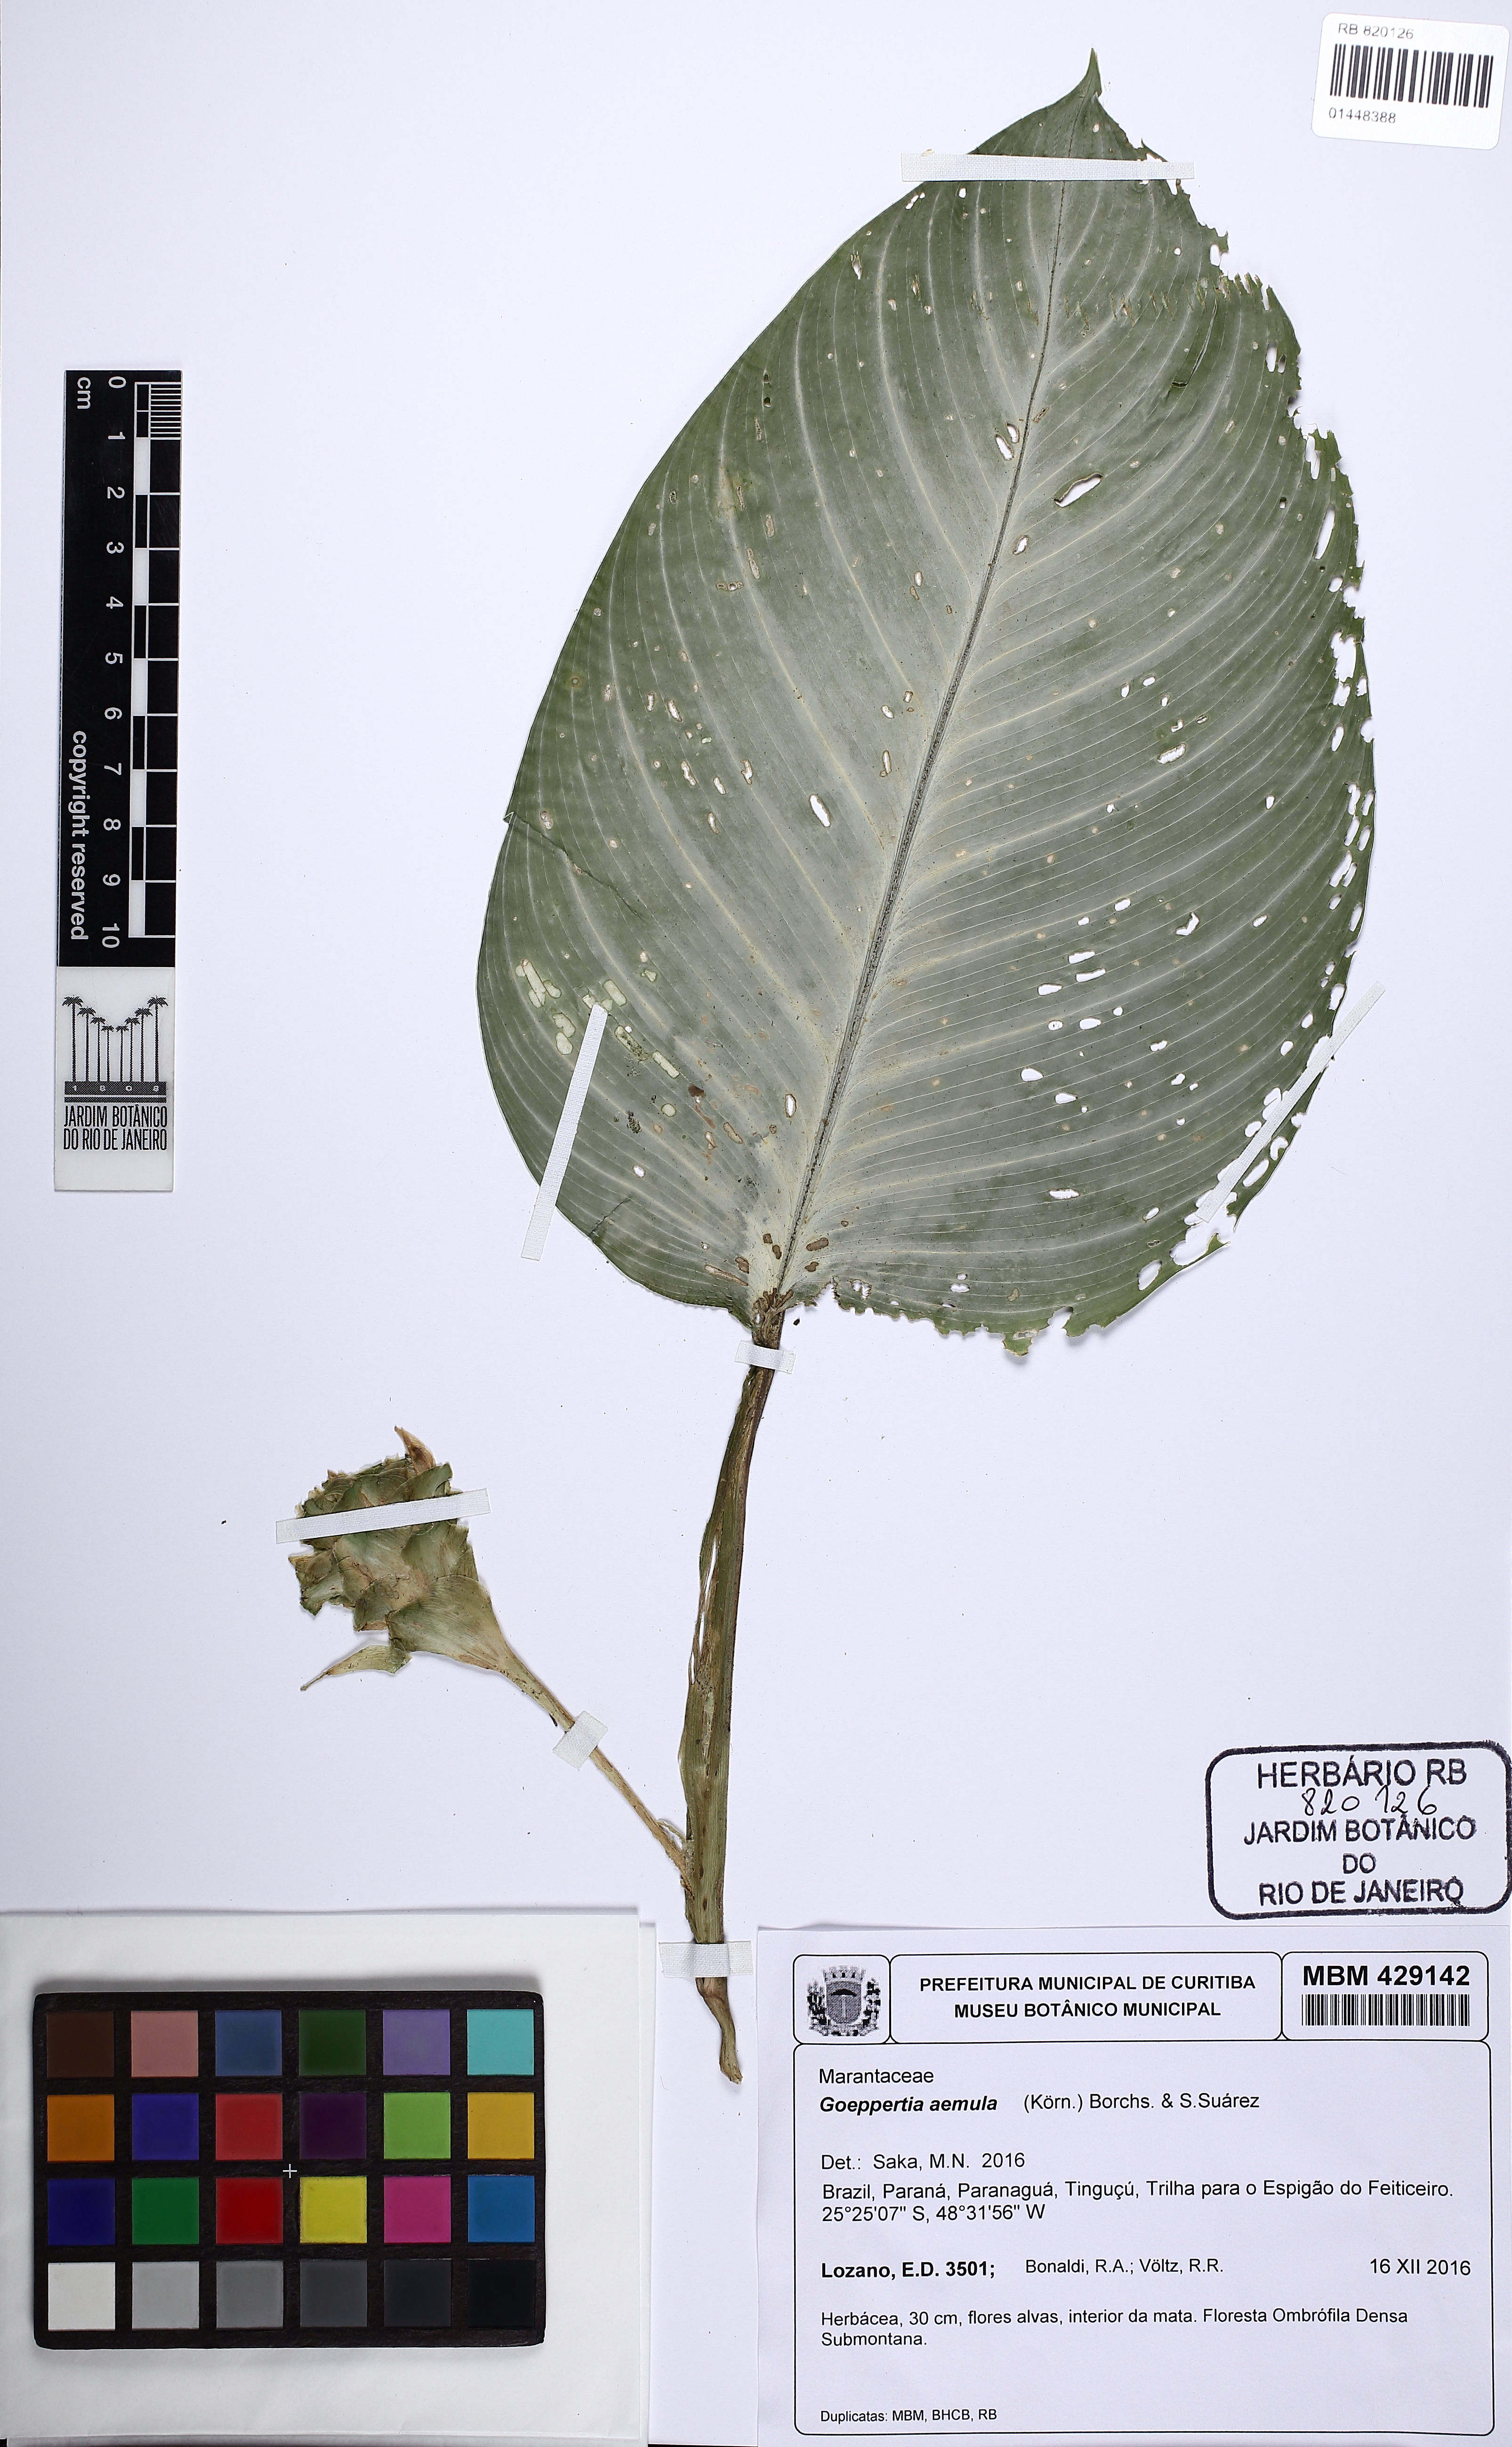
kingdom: Plantae
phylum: Tracheophyta
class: Liliopsida
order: Zingiberales
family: Marantaceae
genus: Goeppertia
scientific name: Goeppertia aemula
